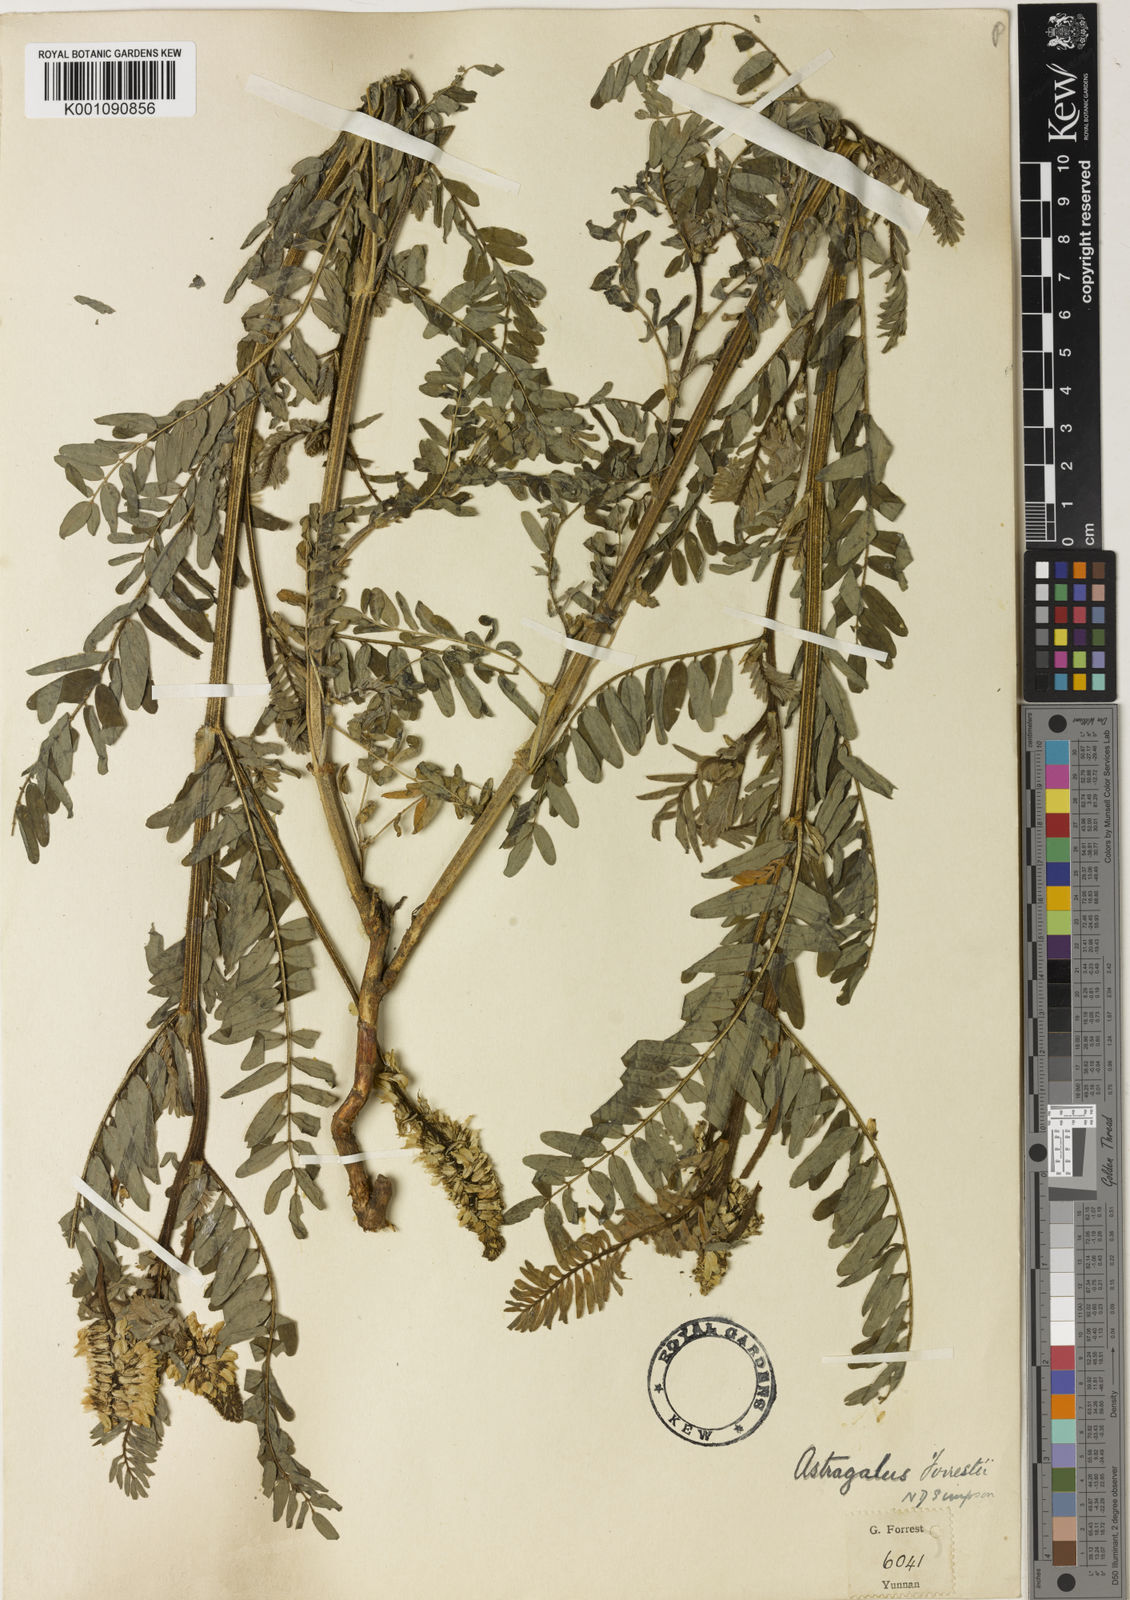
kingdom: Plantae
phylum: Tracheophyta
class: Magnoliopsida
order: Fabales
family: Fabaceae
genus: Astragalus
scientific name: Astragalus
